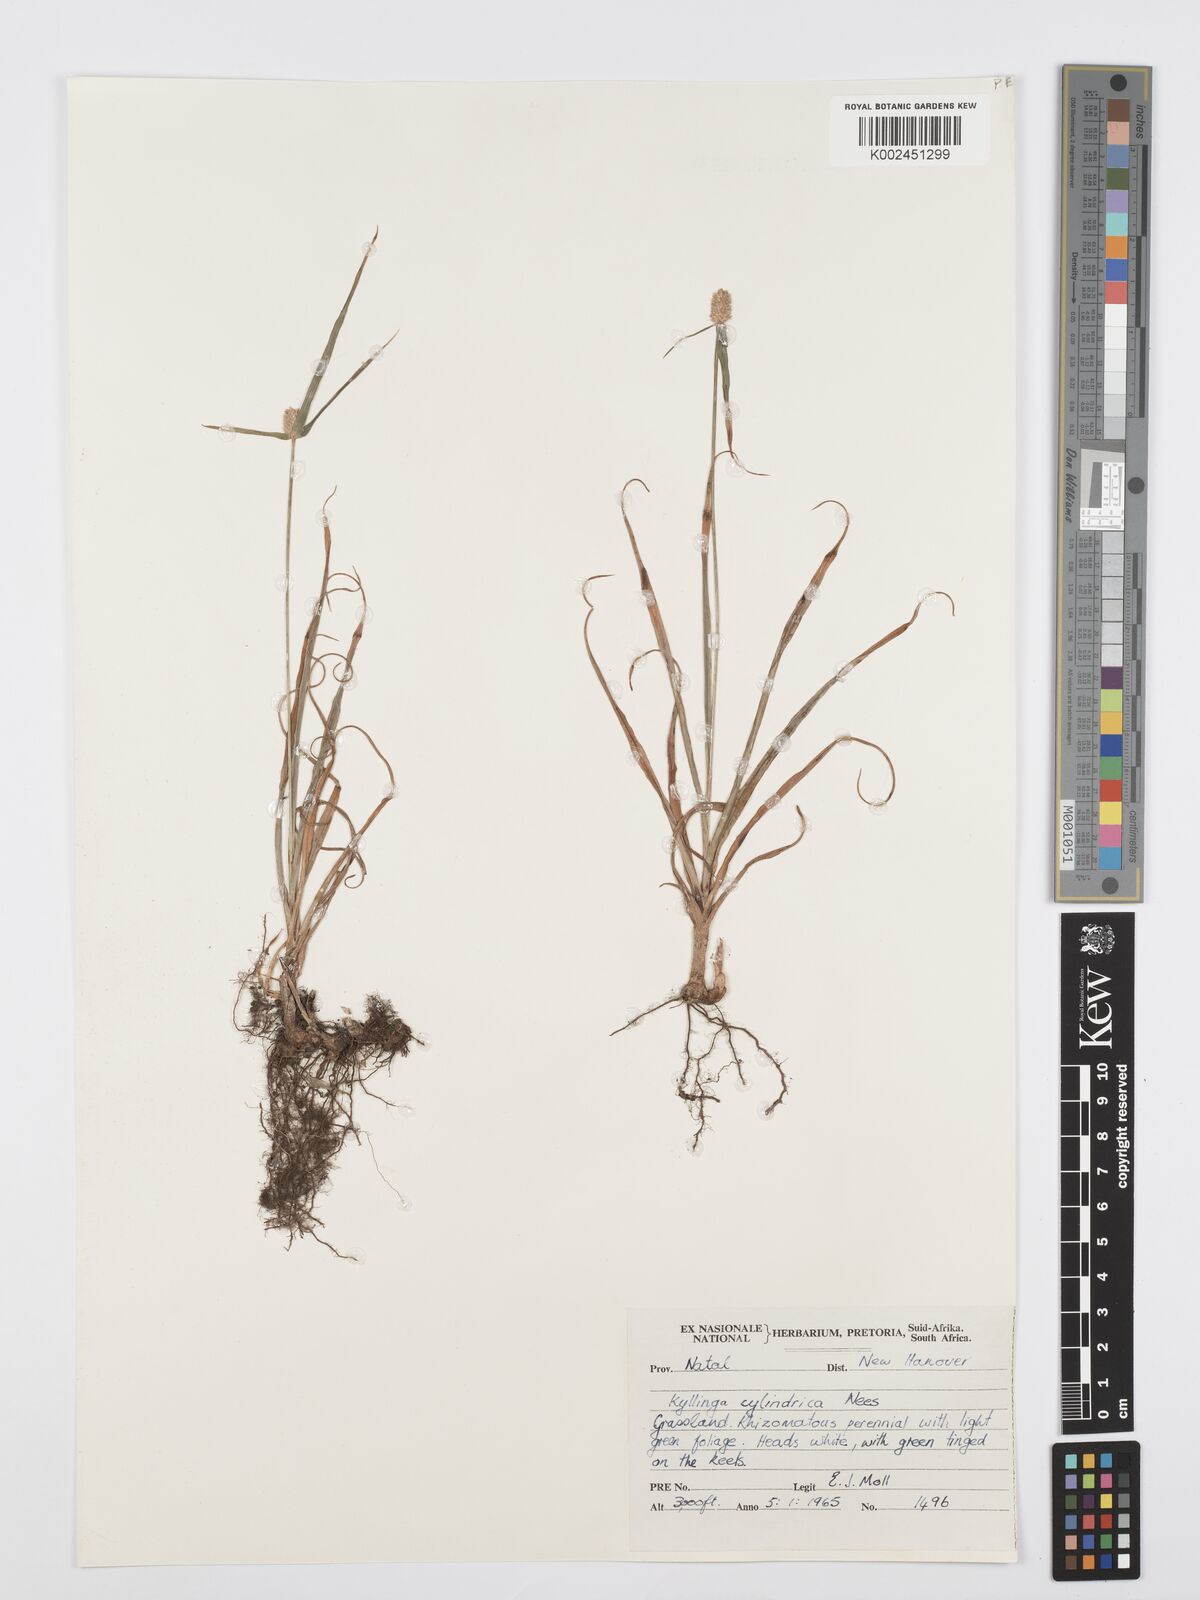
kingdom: Plantae
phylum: Tracheophyta
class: Liliopsida
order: Poales
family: Cyperaceae
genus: Cyperus
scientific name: Cyperus
